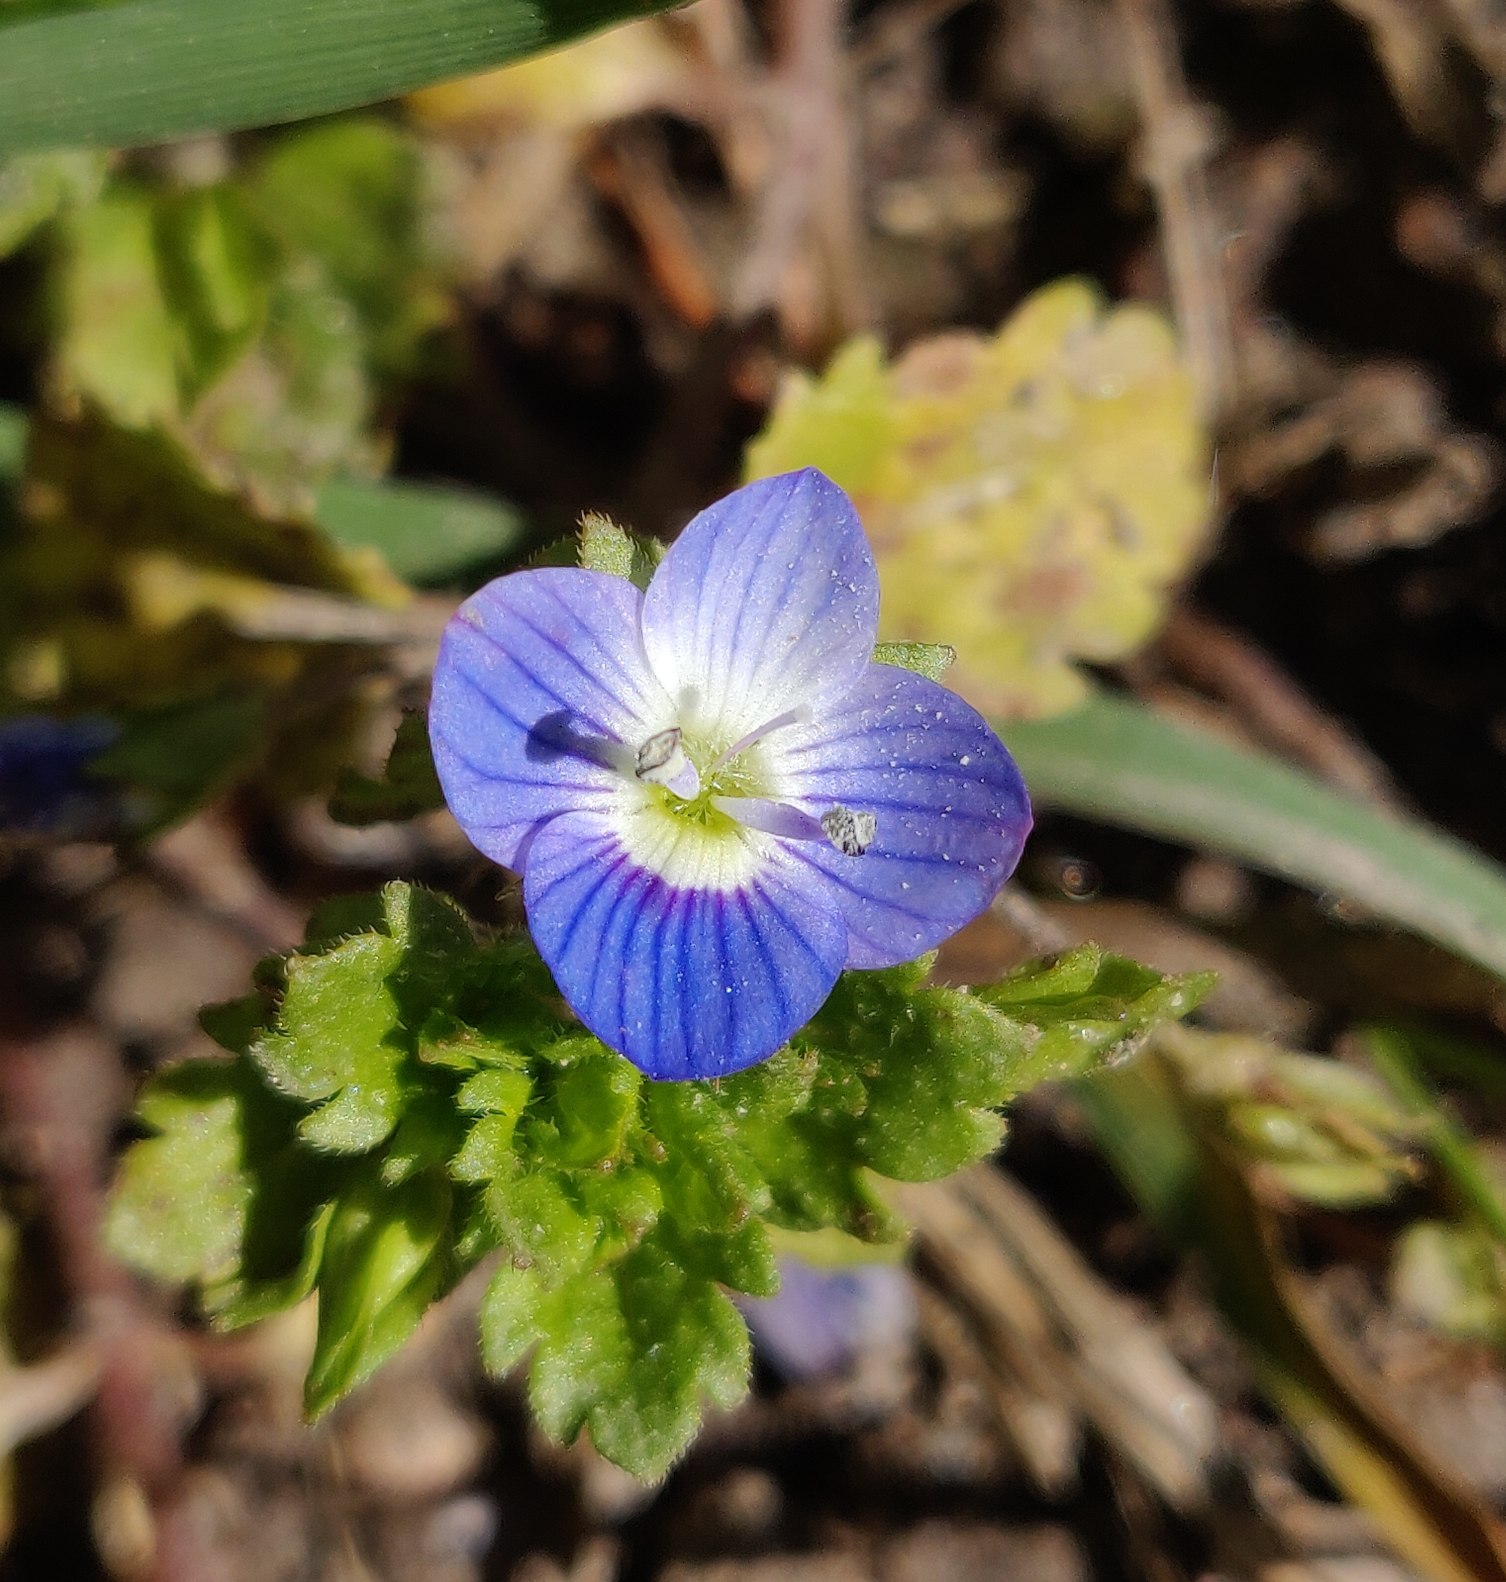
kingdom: Plantae
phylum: Tracheophyta
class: Magnoliopsida
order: Lamiales
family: Plantaginaceae
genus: Veronica
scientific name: Veronica persica
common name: Storkronet ærenpris
